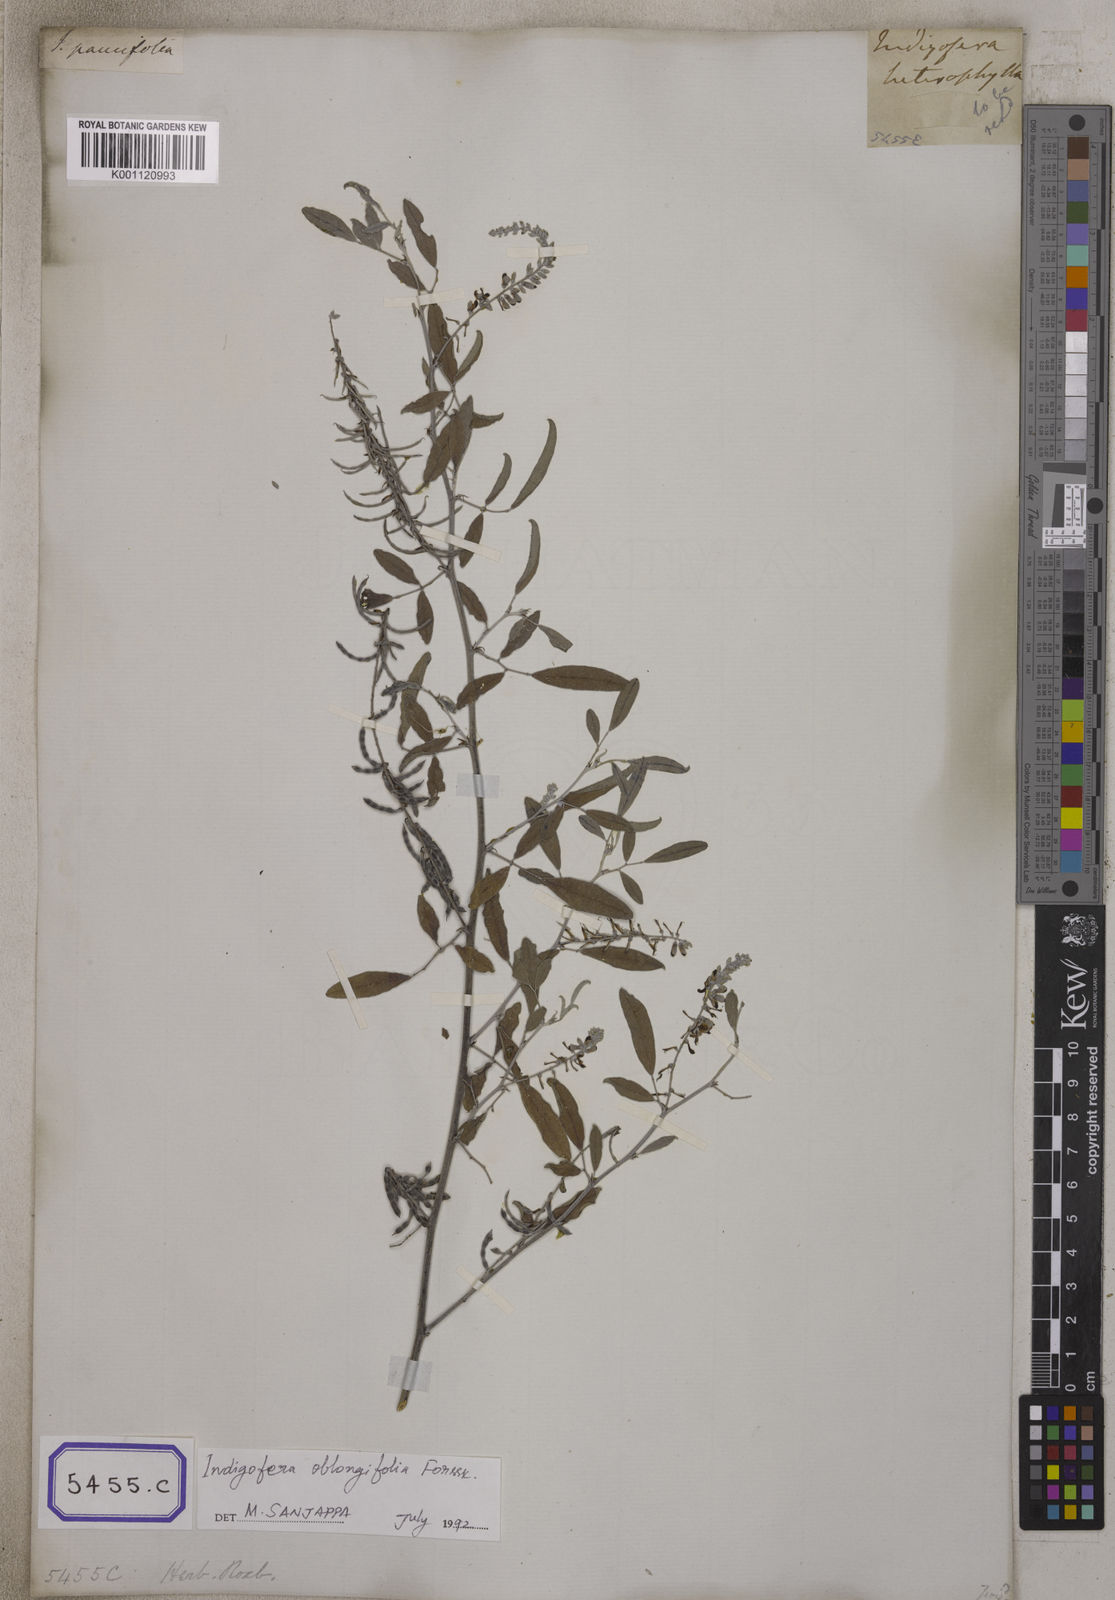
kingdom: Plantae
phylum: Tracheophyta
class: Magnoliopsida
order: Fabales
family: Fabaceae
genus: Indigofera
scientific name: Indigofera
